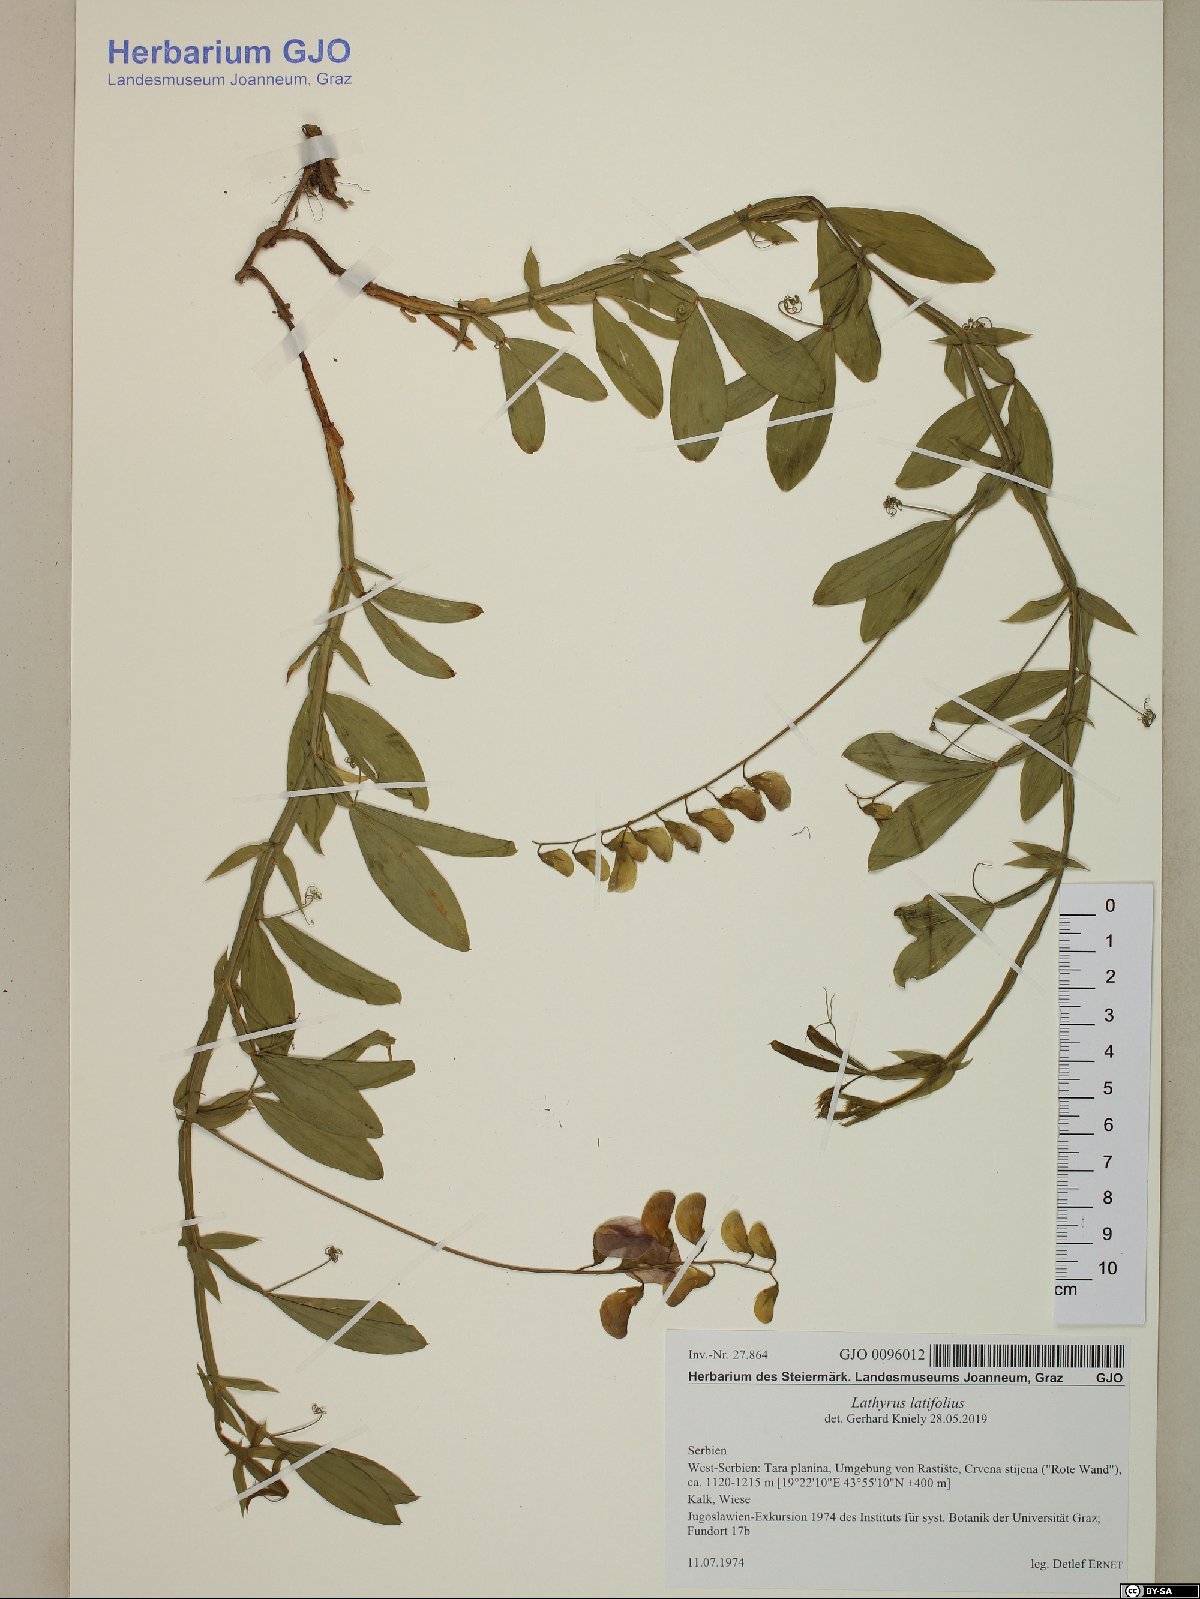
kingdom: Plantae
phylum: Tracheophyta
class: Magnoliopsida
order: Fabales
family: Fabaceae
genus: Lathyrus
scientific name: Lathyrus latifolius
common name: Perennial pea
